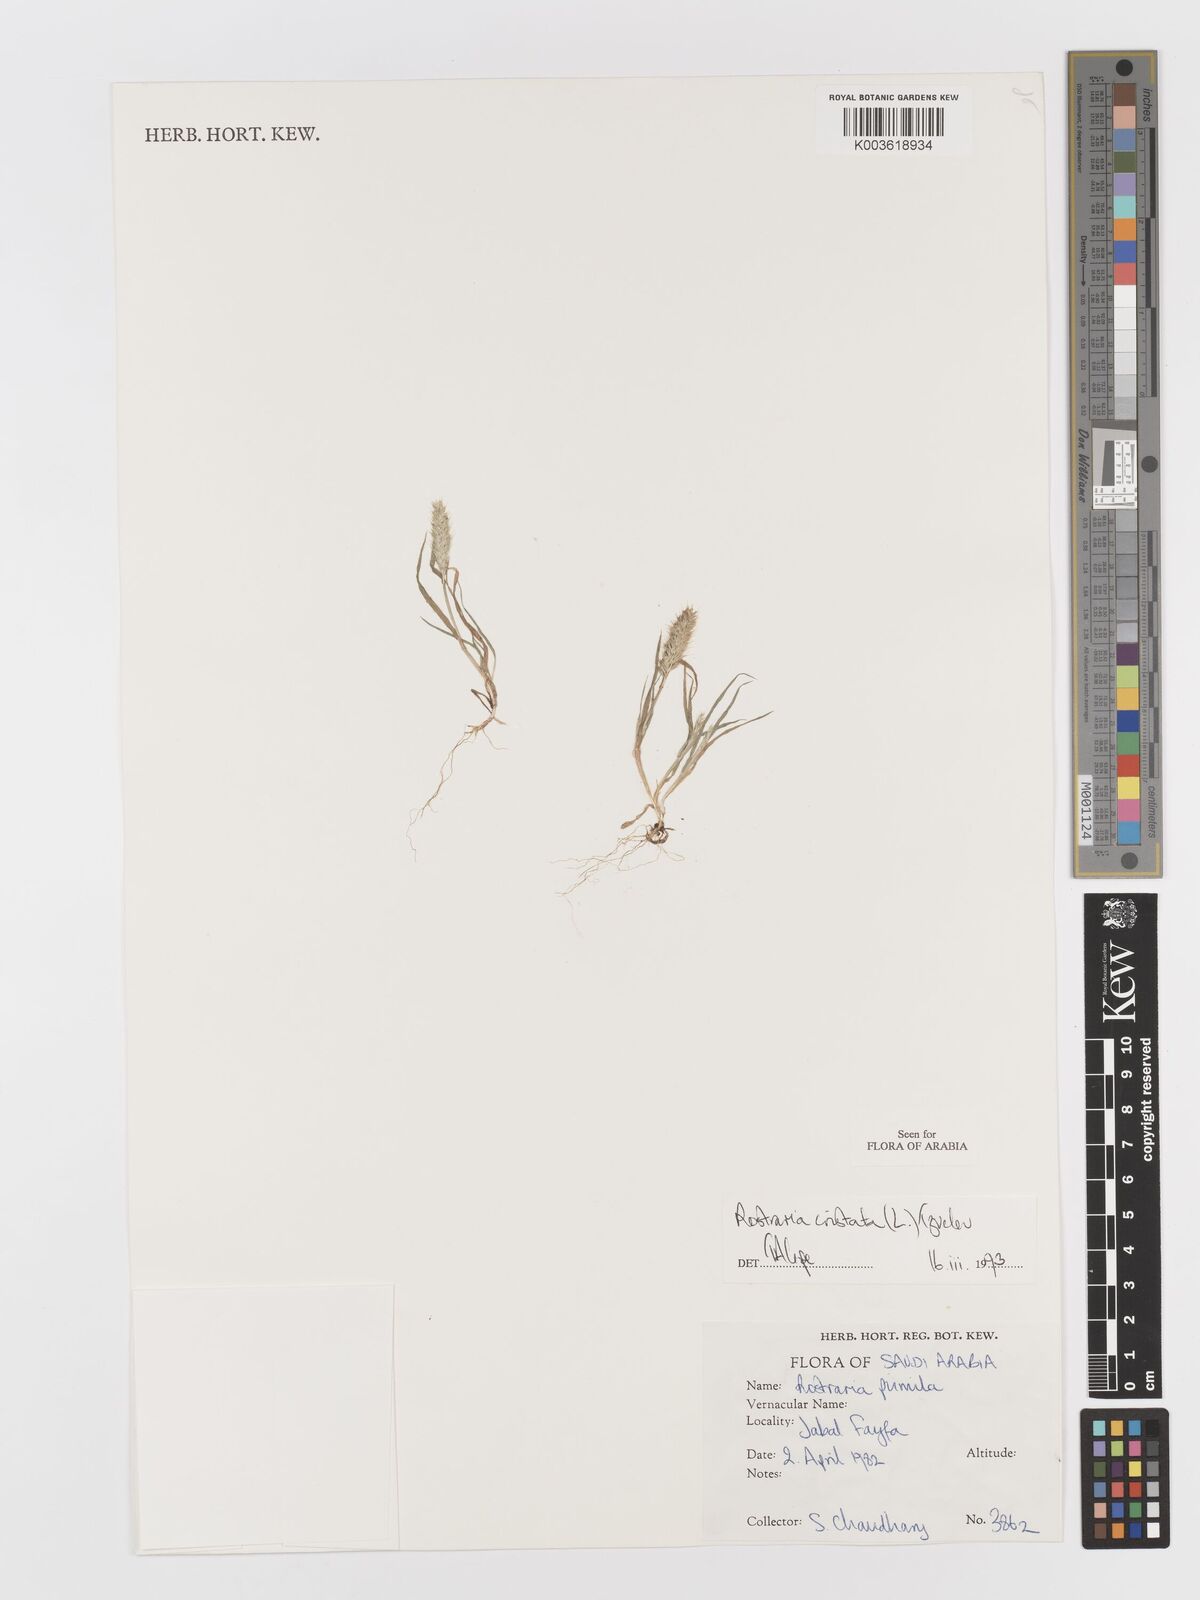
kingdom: Plantae
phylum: Tracheophyta
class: Liliopsida
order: Poales
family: Poaceae
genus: Rostraria
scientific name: Rostraria cristata
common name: Mediterranean hair-grass
